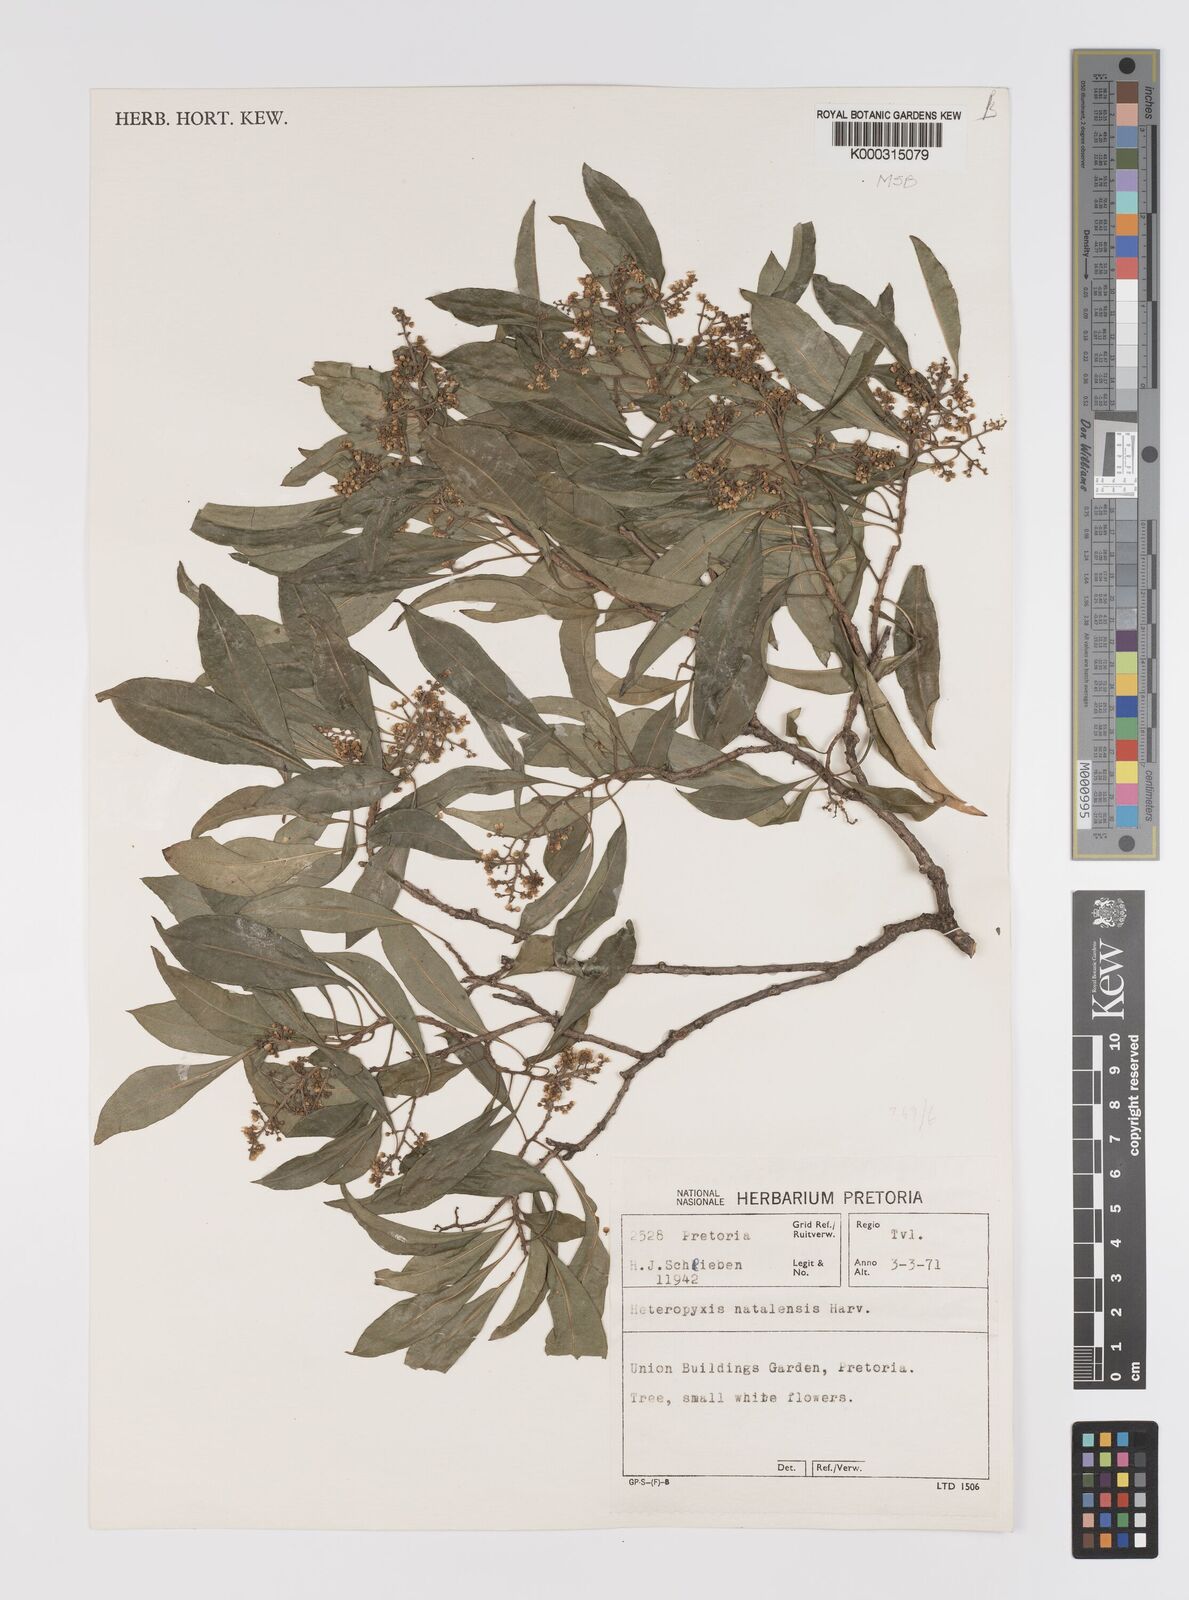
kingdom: Plantae
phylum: Tracheophyta
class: Magnoliopsida
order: Myrtales
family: Myrtaceae
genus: Heteropyxis
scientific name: Heteropyxis natalensis
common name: Lavender tree
